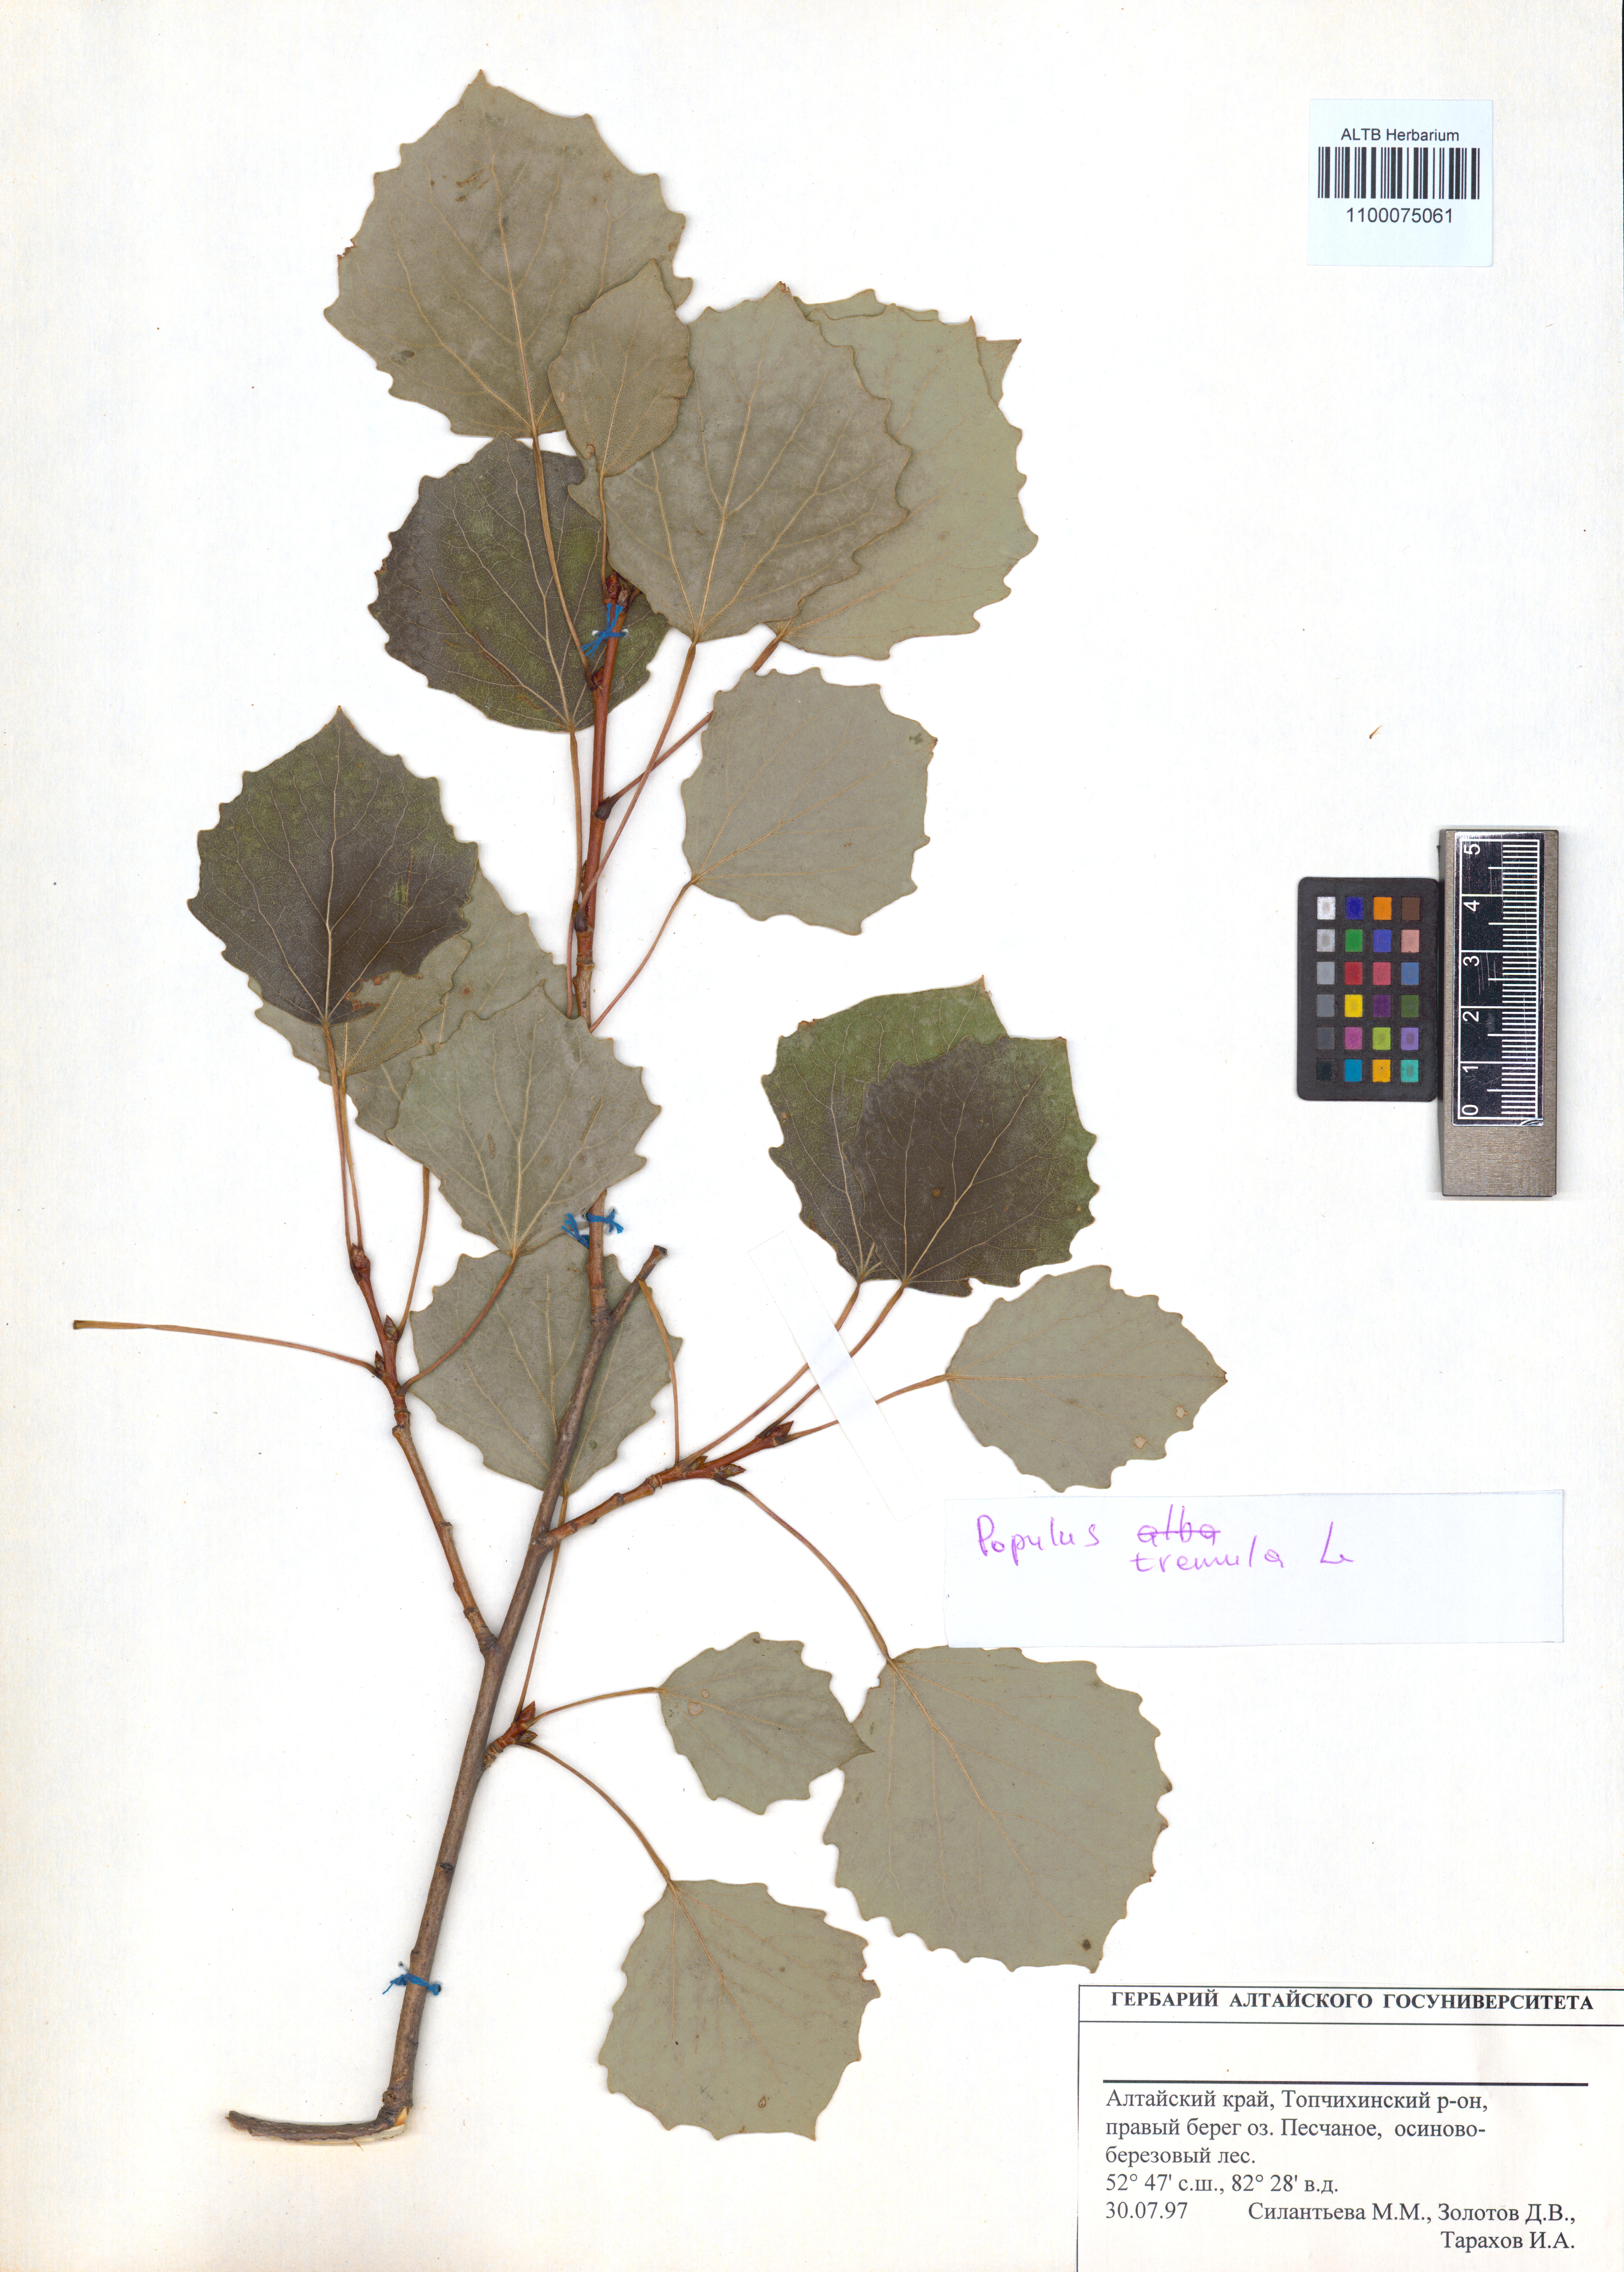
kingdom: Plantae
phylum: Tracheophyta
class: Magnoliopsida
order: Malpighiales
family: Salicaceae
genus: Populus
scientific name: Populus tremula
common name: European aspen
